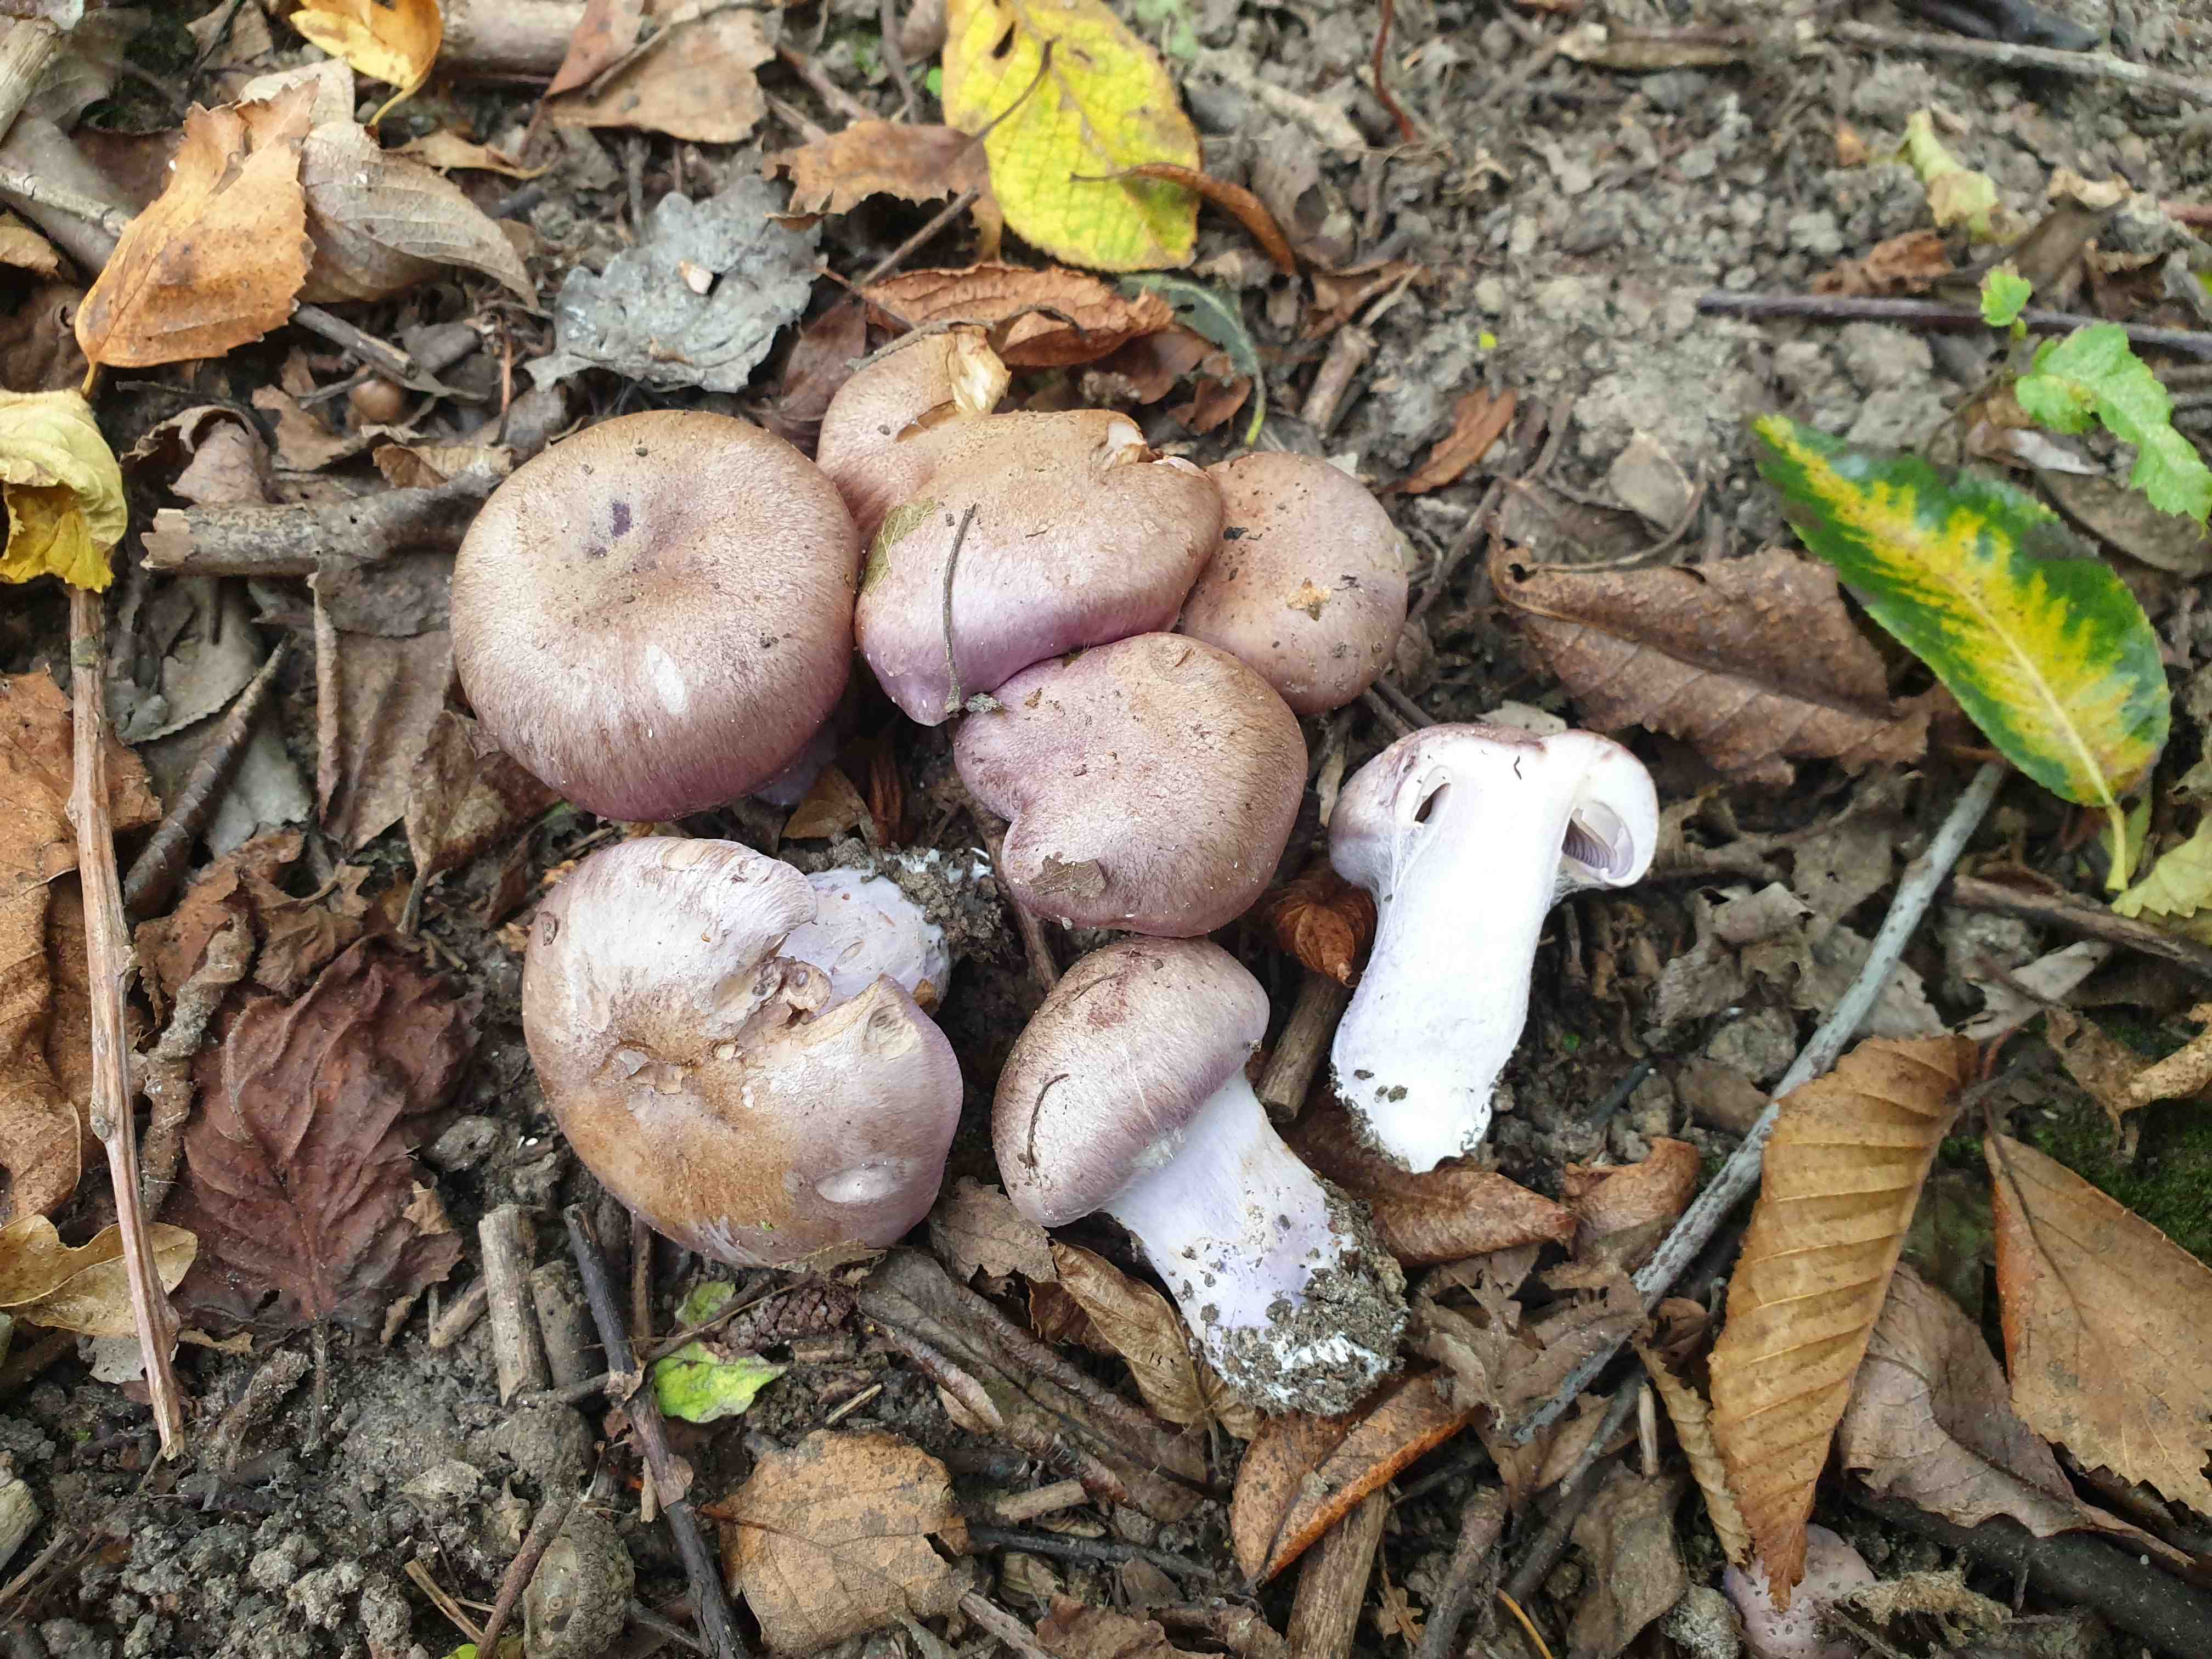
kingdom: Fungi
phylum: Basidiomycota
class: Agaricomycetes
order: Agaricales
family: Cortinariaceae
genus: Cortinarius
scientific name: Cortinarius largus
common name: violetrandet slørhat
